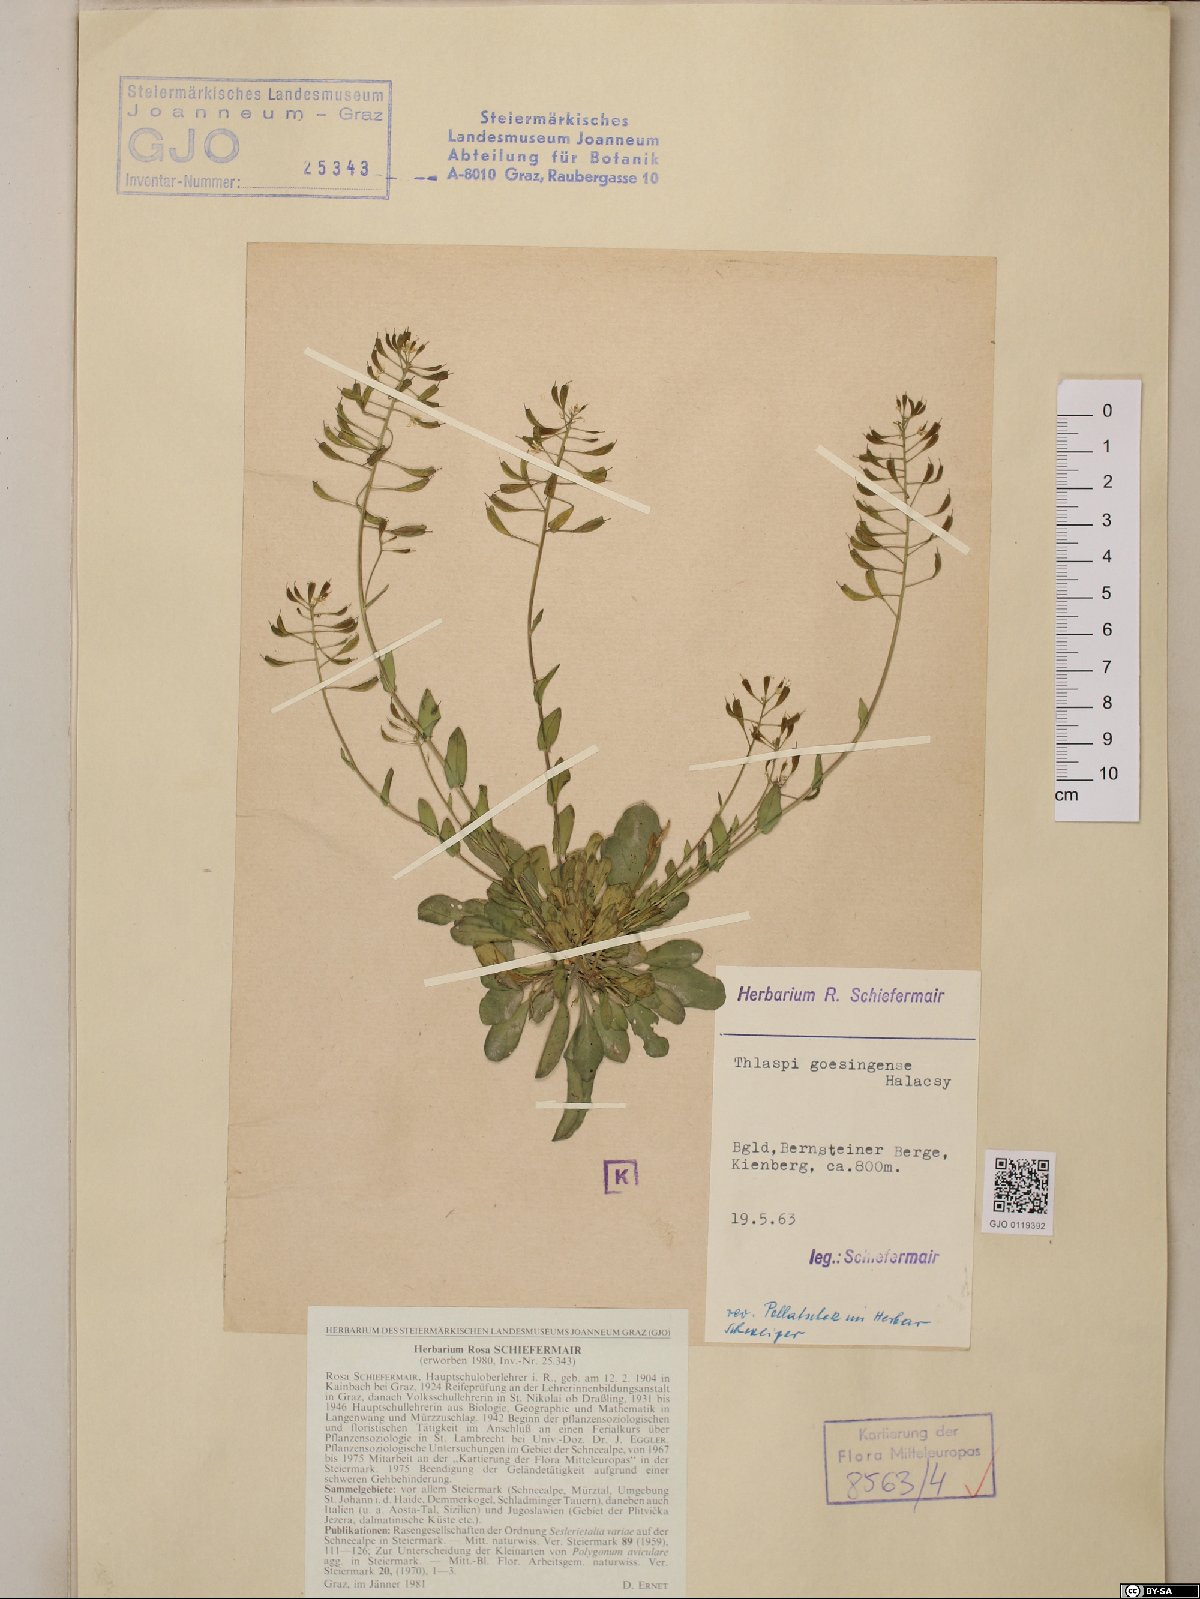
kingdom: Plantae
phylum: Tracheophyta
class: Magnoliopsida
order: Brassicales
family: Brassicaceae
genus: Noccaea
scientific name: Noccaea goesingensis
